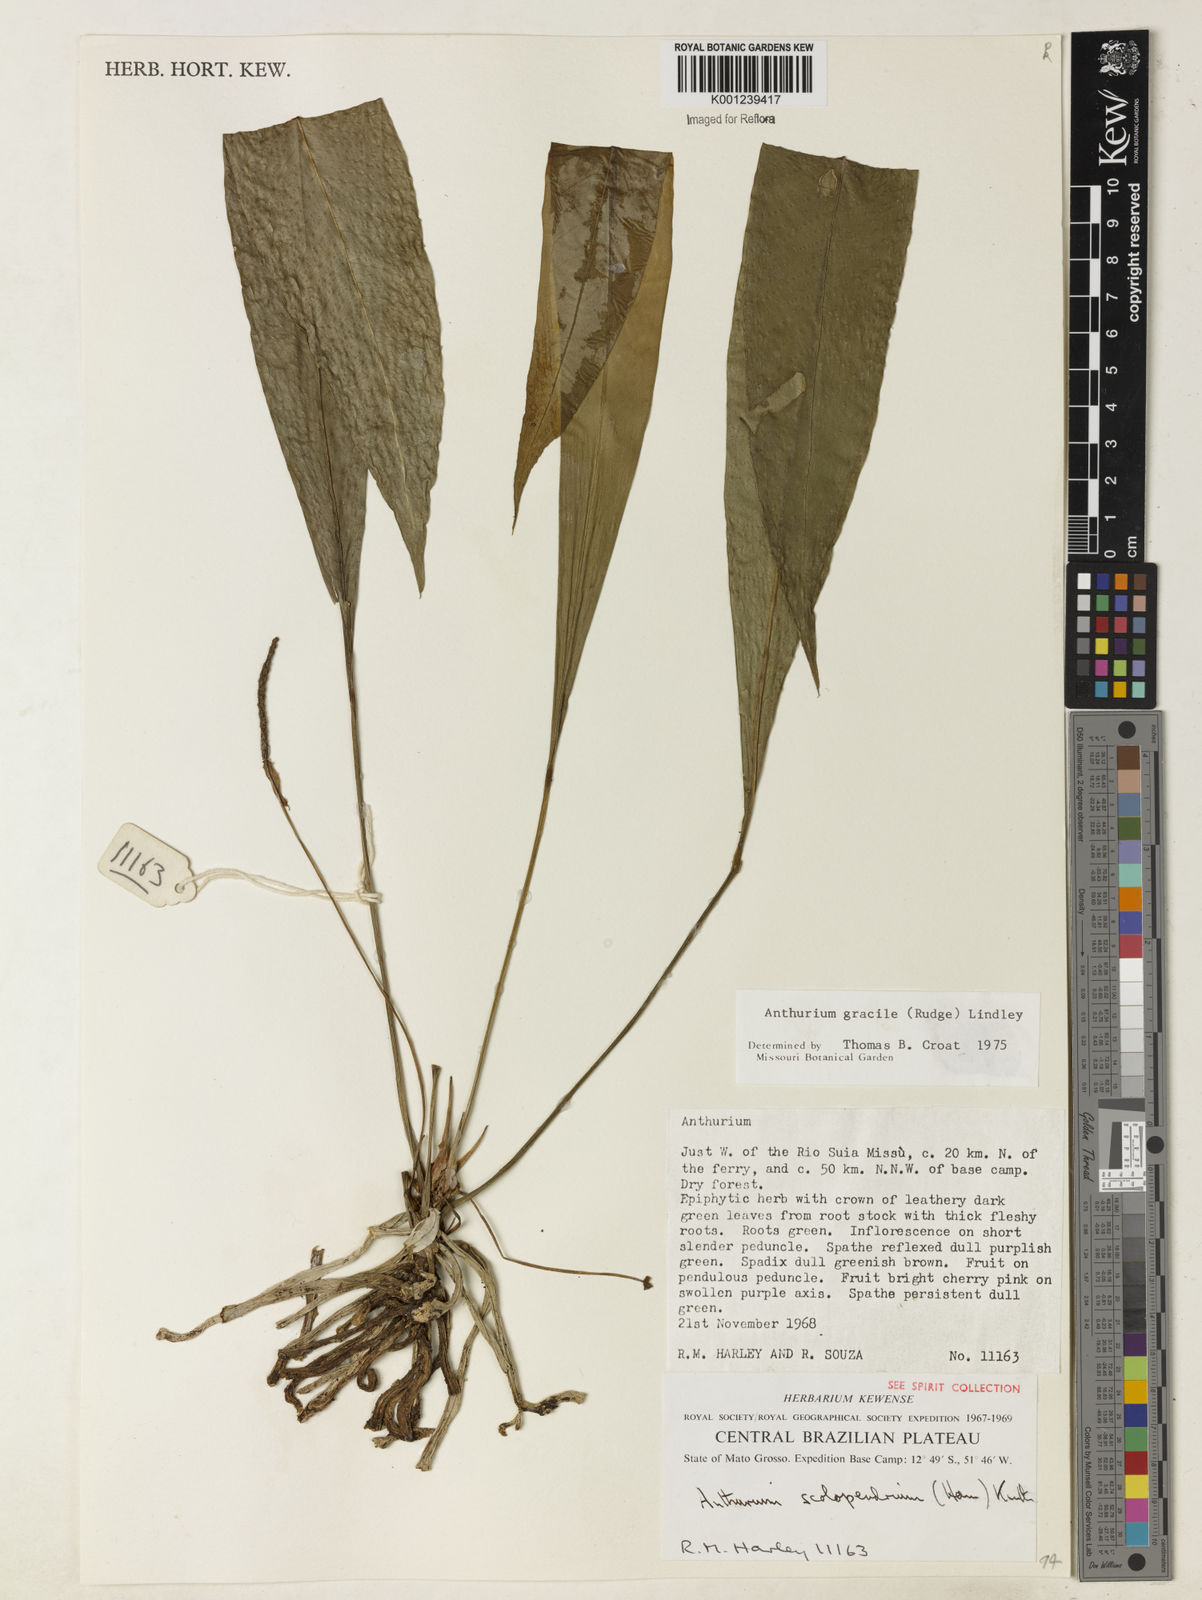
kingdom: Plantae
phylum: Tracheophyta
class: Liliopsida
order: Alismatales
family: Araceae
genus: Anthurium
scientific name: Anthurium gracile
